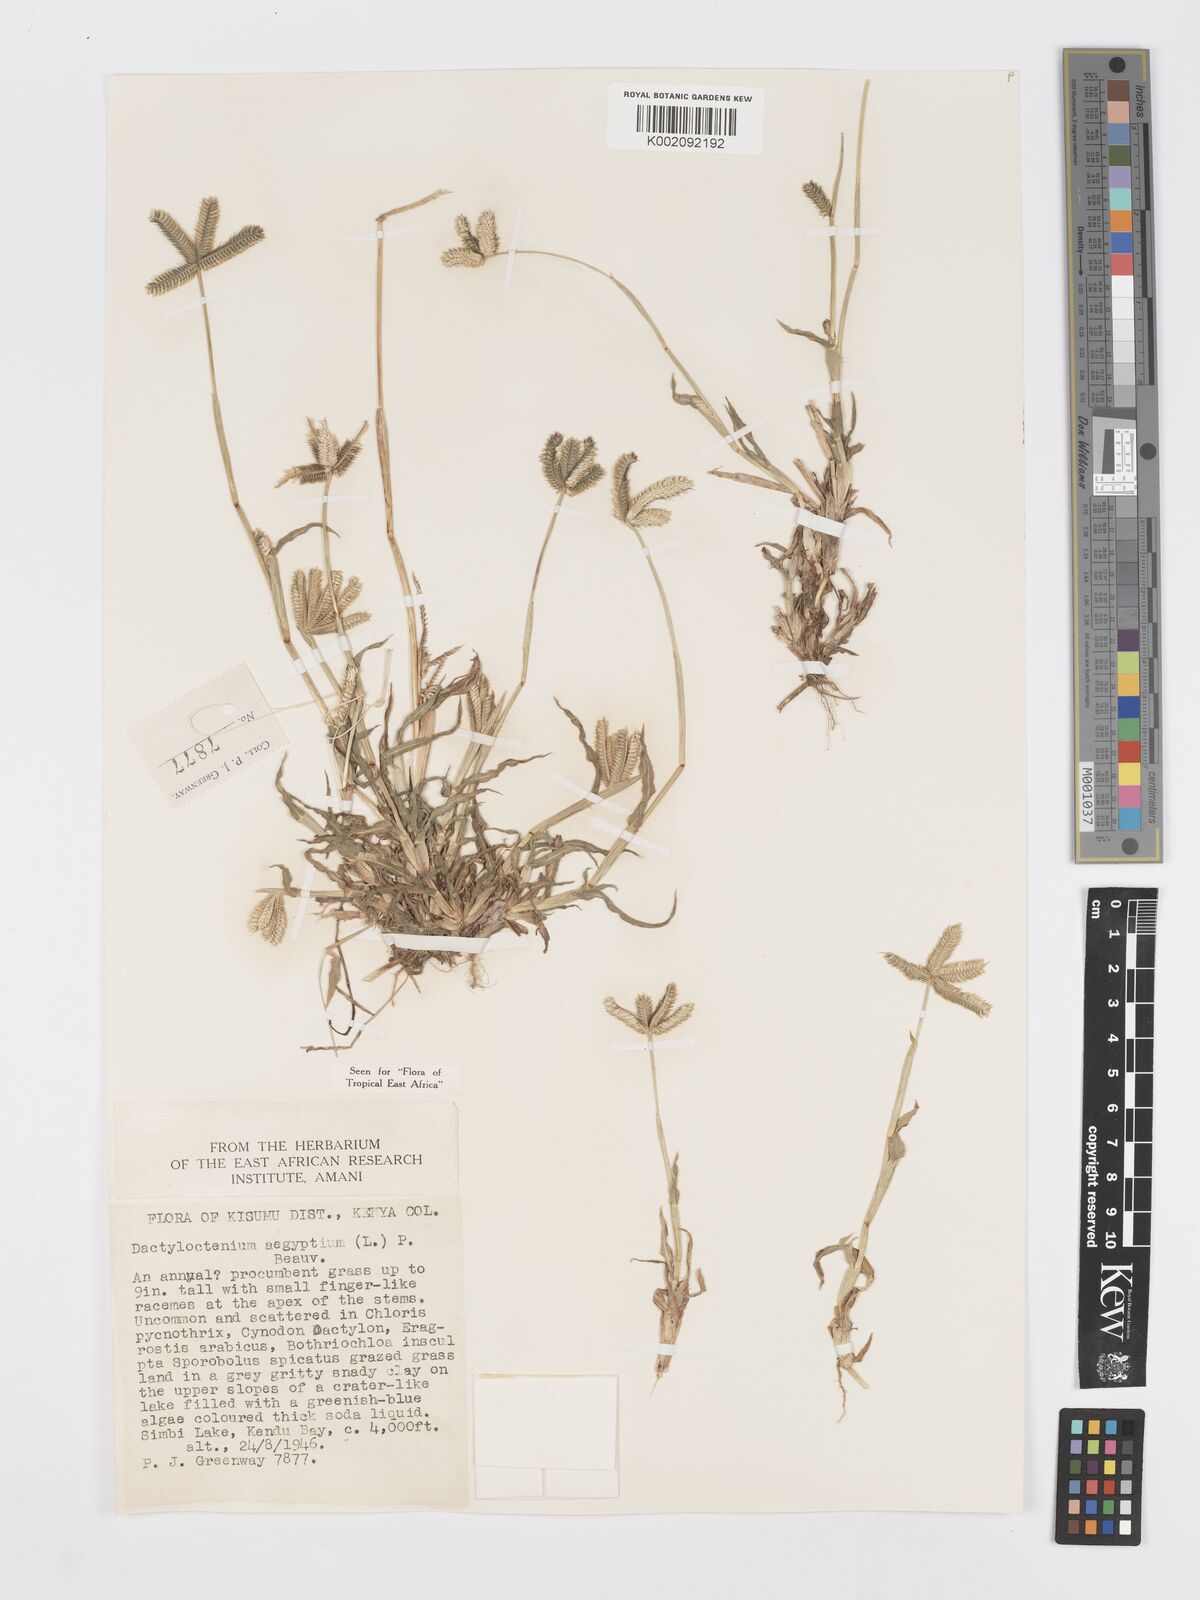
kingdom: Plantae
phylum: Tracheophyta
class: Liliopsida
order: Poales
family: Poaceae
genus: Dactyloctenium
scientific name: Dactyloctenium aegyptium
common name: Egyptian grass
